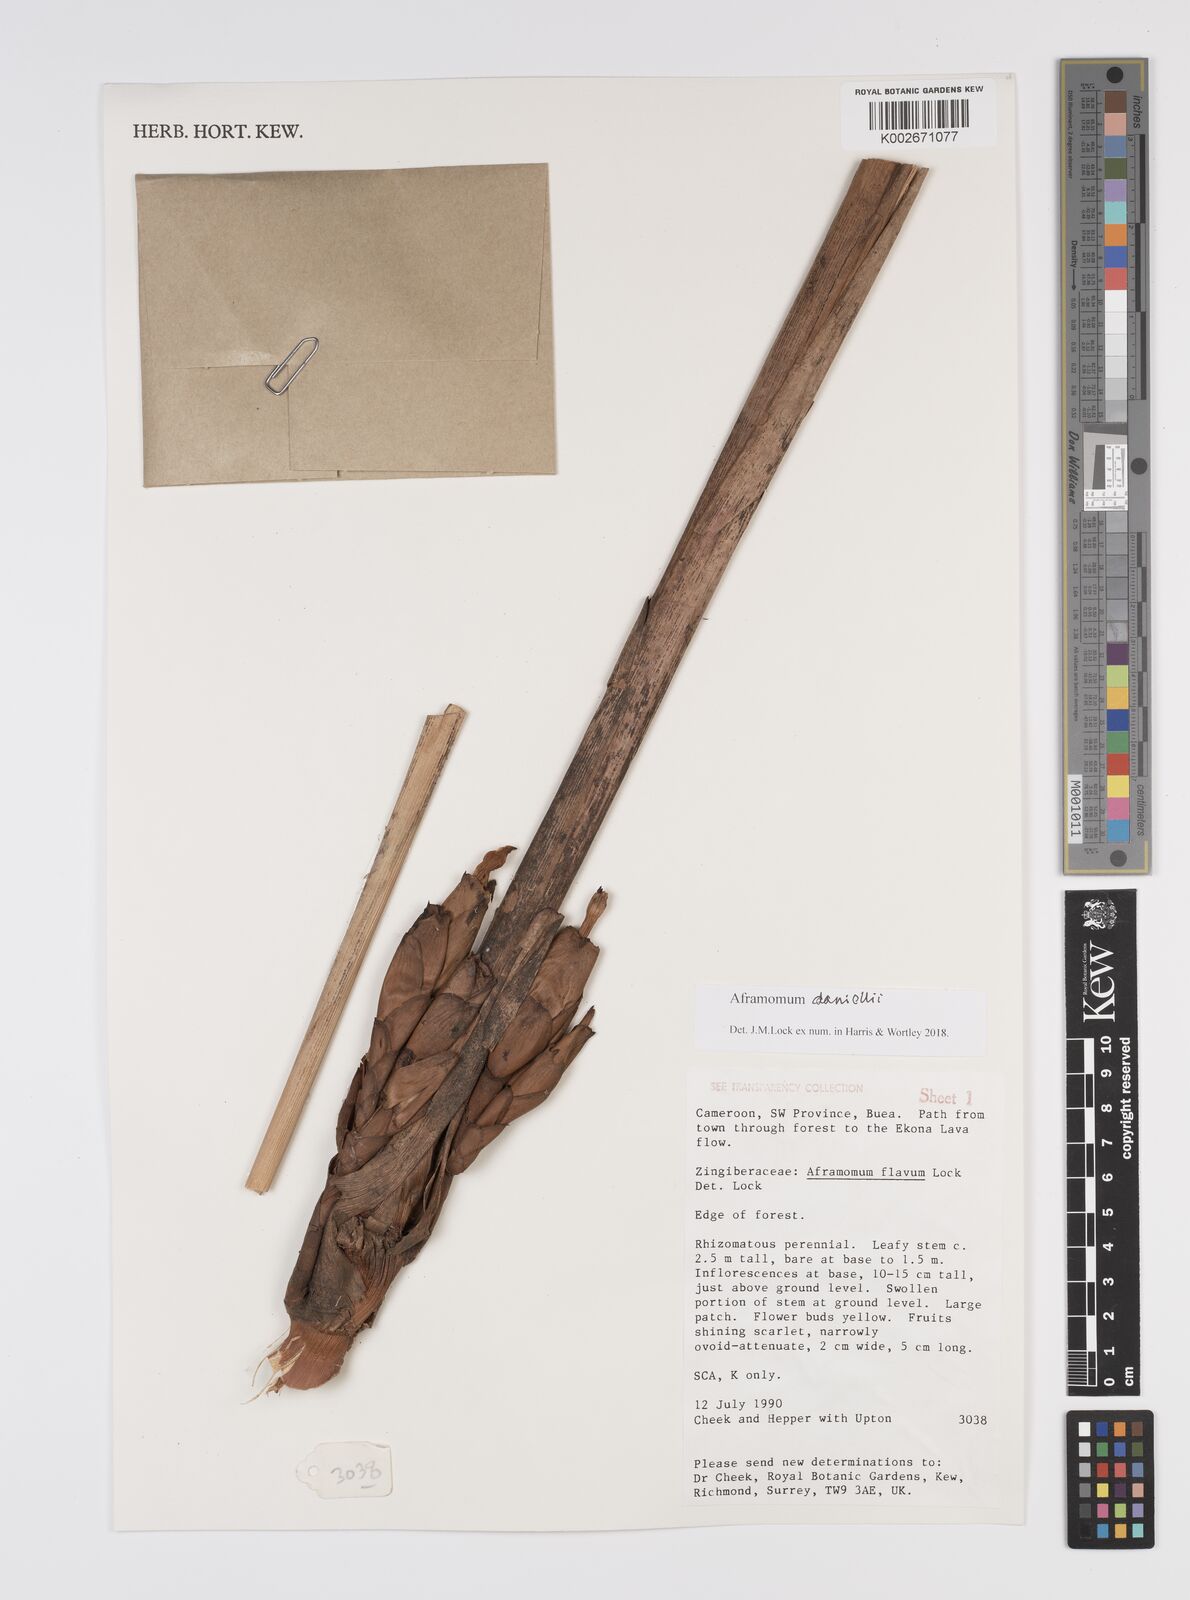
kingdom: Plantae
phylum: Tracheophyta
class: Liliopsida
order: Zingiberales
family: Zingiberaceae
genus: Aframomum
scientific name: Aframomum daniellii
